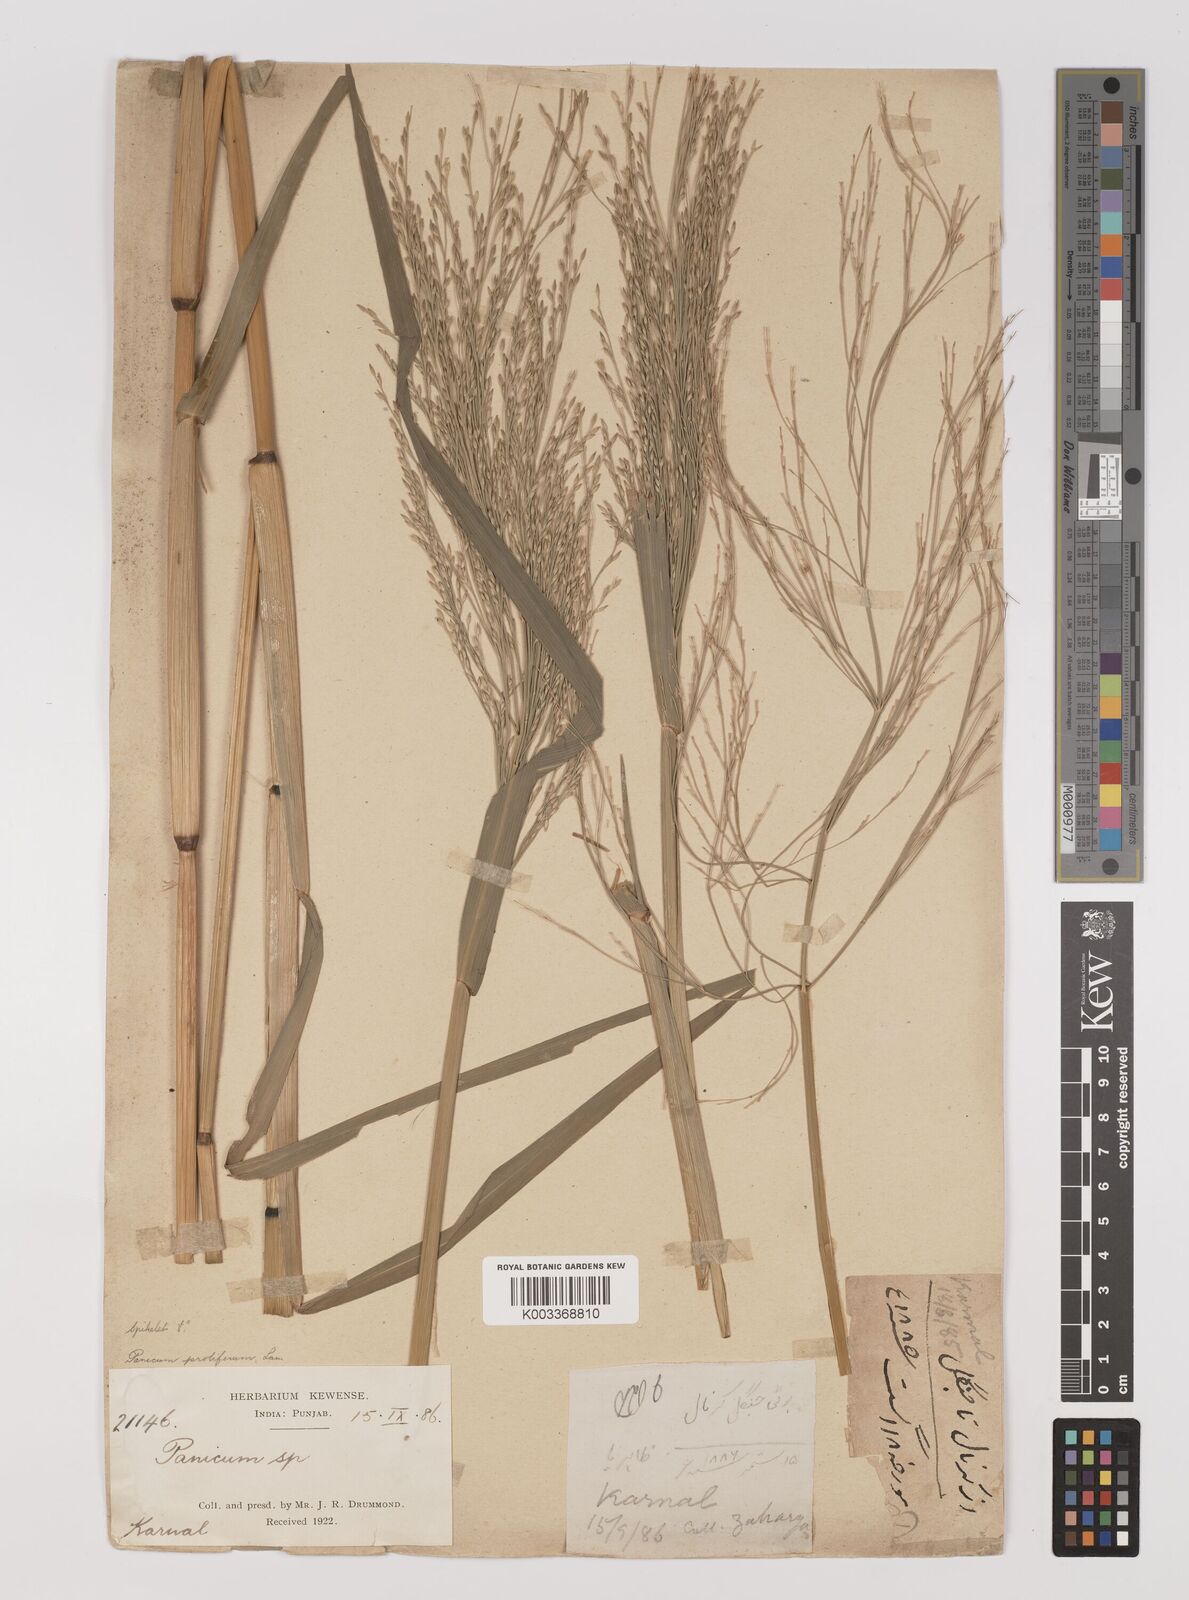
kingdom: Plantae
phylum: Tracheophyta
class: Liliopsida
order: Poales
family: Poaceae
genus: Louisiella
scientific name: Louisiella paludosa
